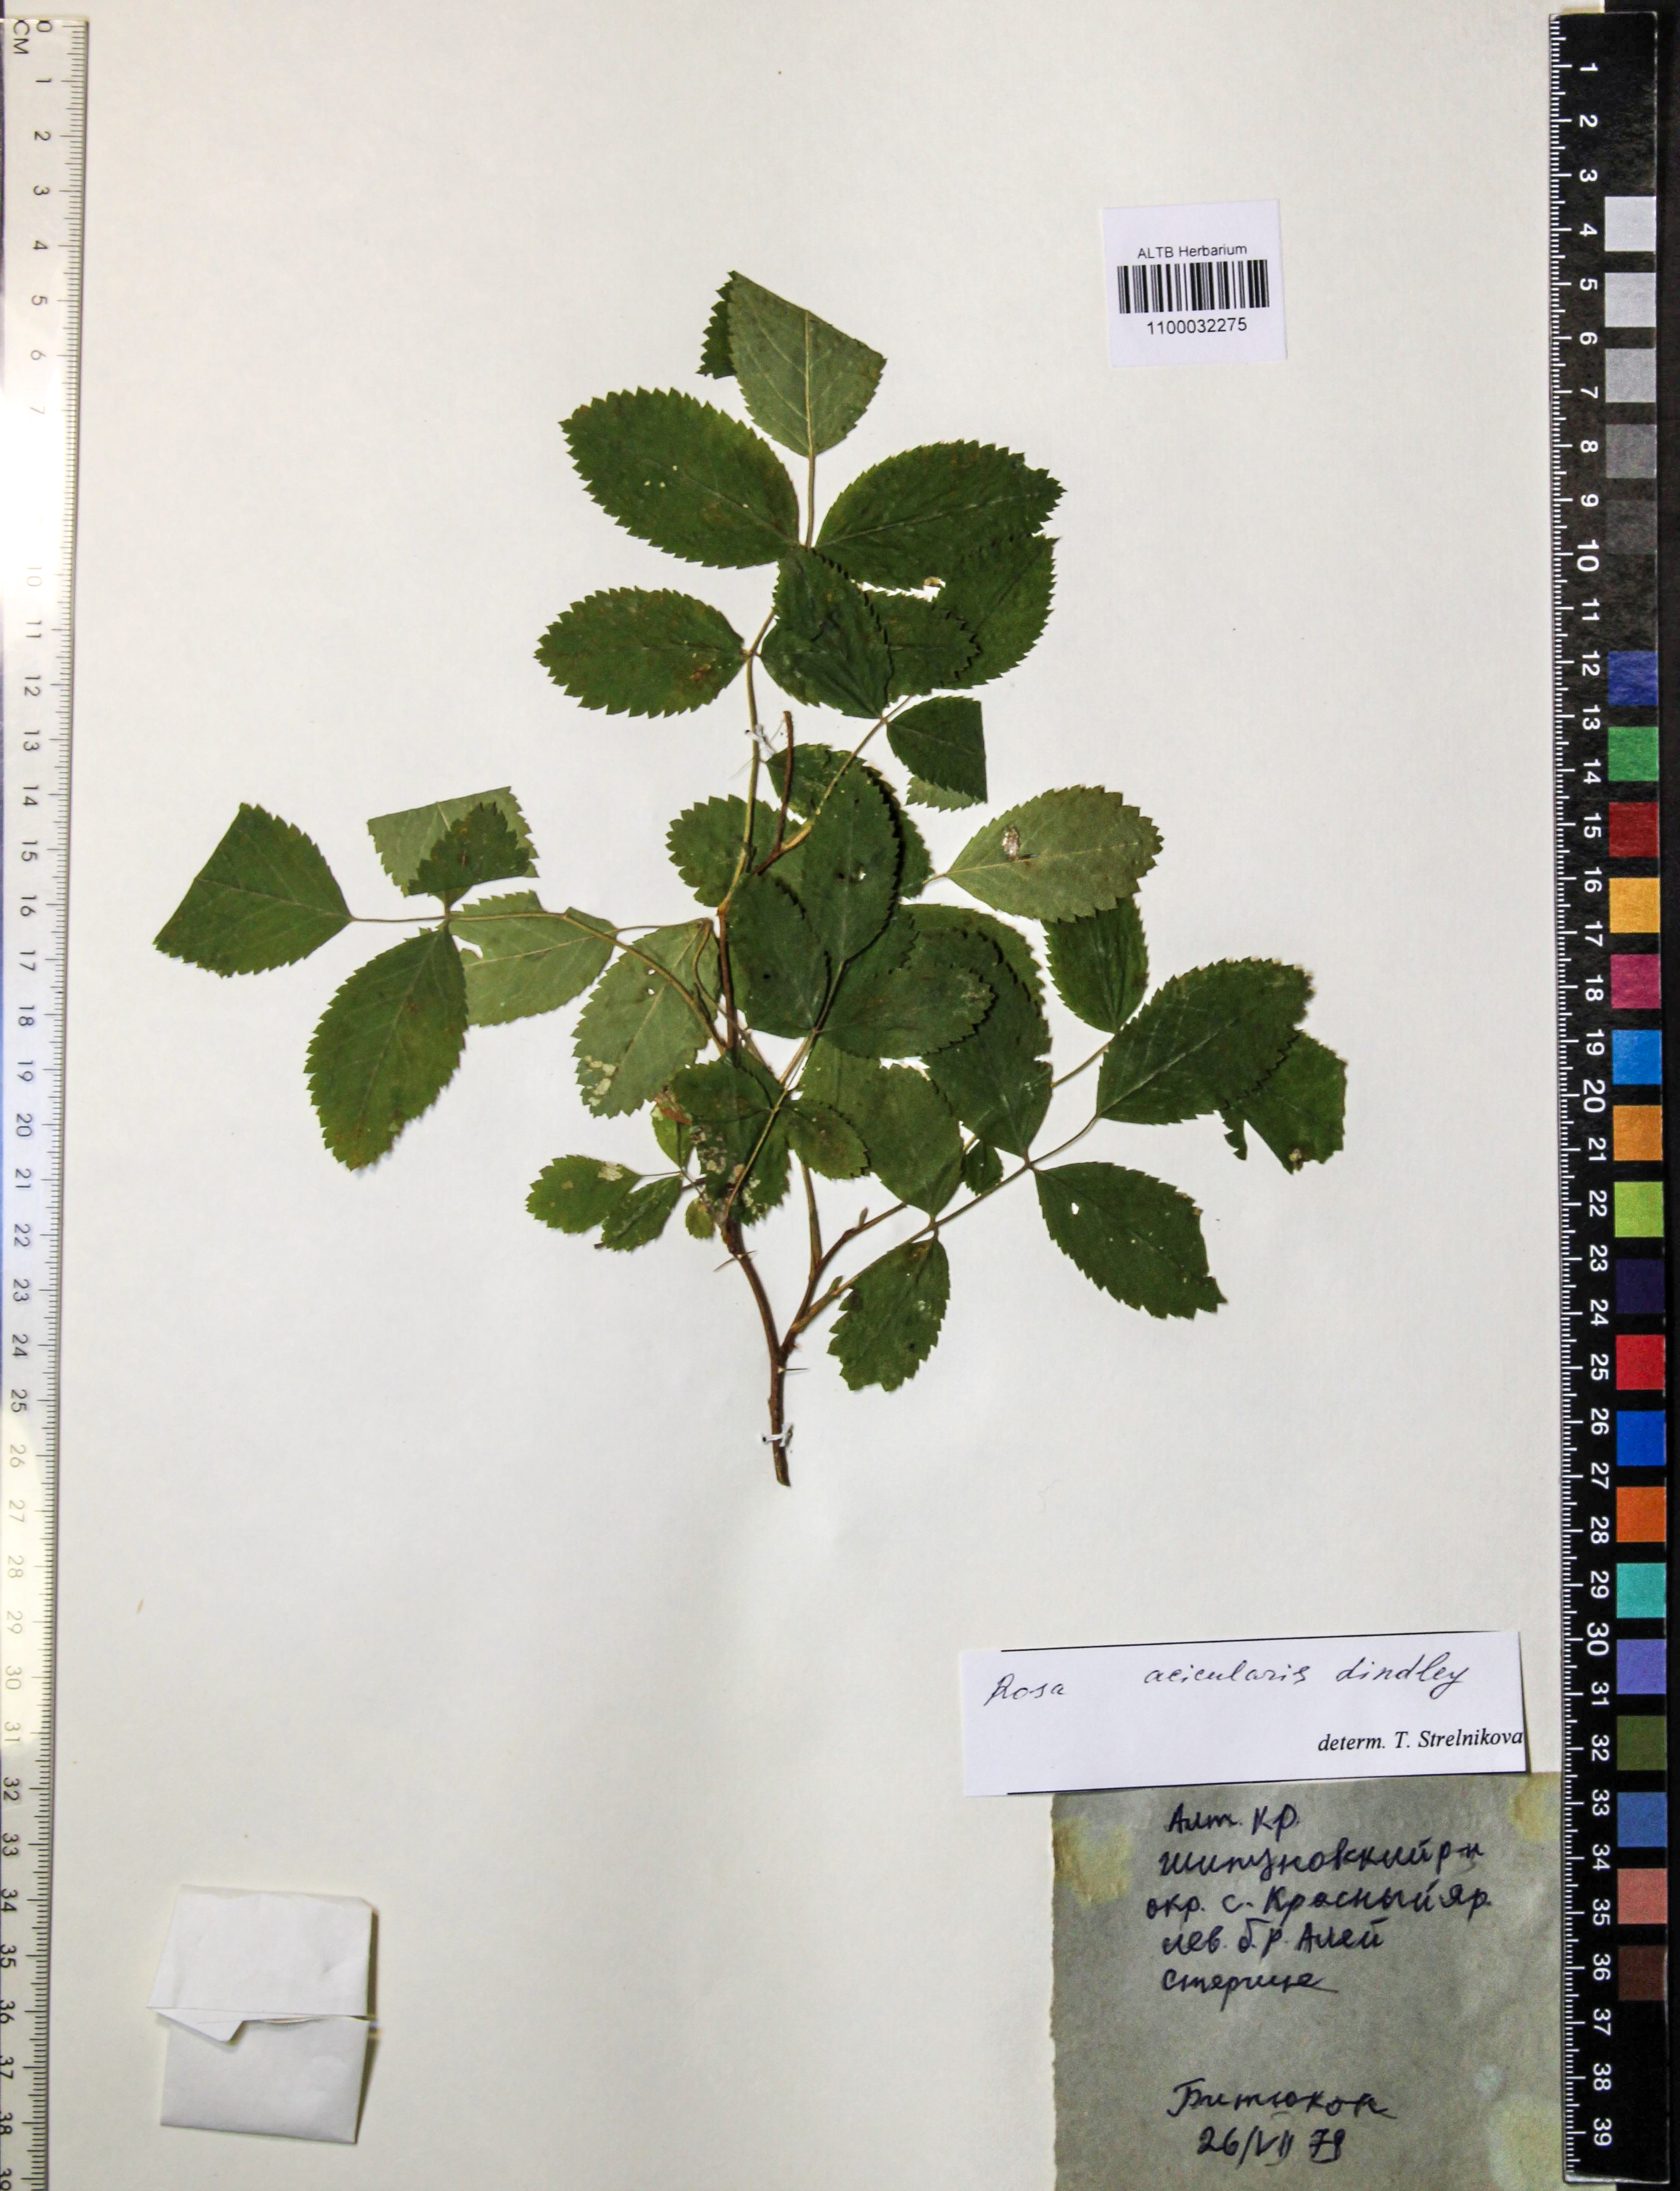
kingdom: Plantae
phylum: Tracheophyta
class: Magnoliopsida
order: Rosales
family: Rosaceae
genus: Rosa
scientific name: Rosa acicularis
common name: Prickly rose
